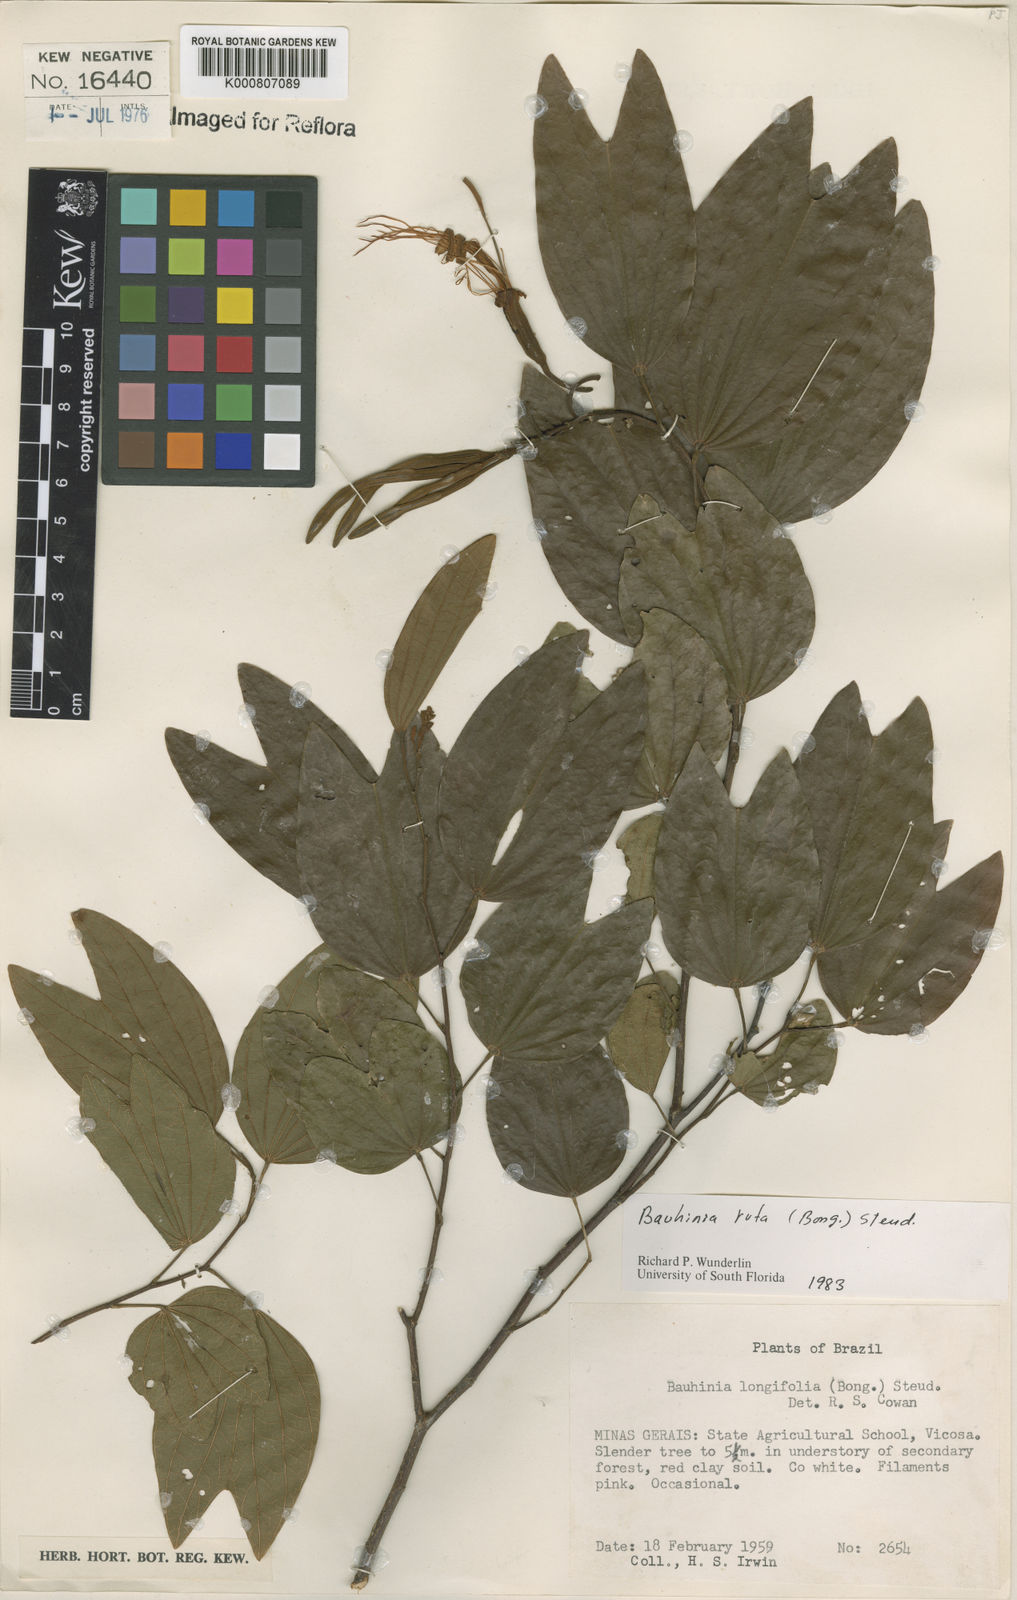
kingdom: Plantae
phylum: Tracheophyta
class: Magnoliopsida
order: Fabales
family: Fabaceae
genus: Bauhinia
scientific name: Bauhinia rufa
